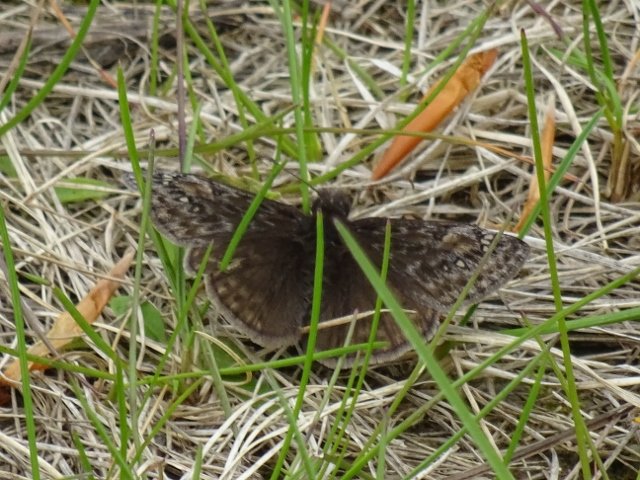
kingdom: Animalia
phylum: Arthropoda
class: Insecta
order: Lepidoptera
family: Hesperiidae
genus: Gesta
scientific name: Gesta
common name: Juvenal's Duskywing
